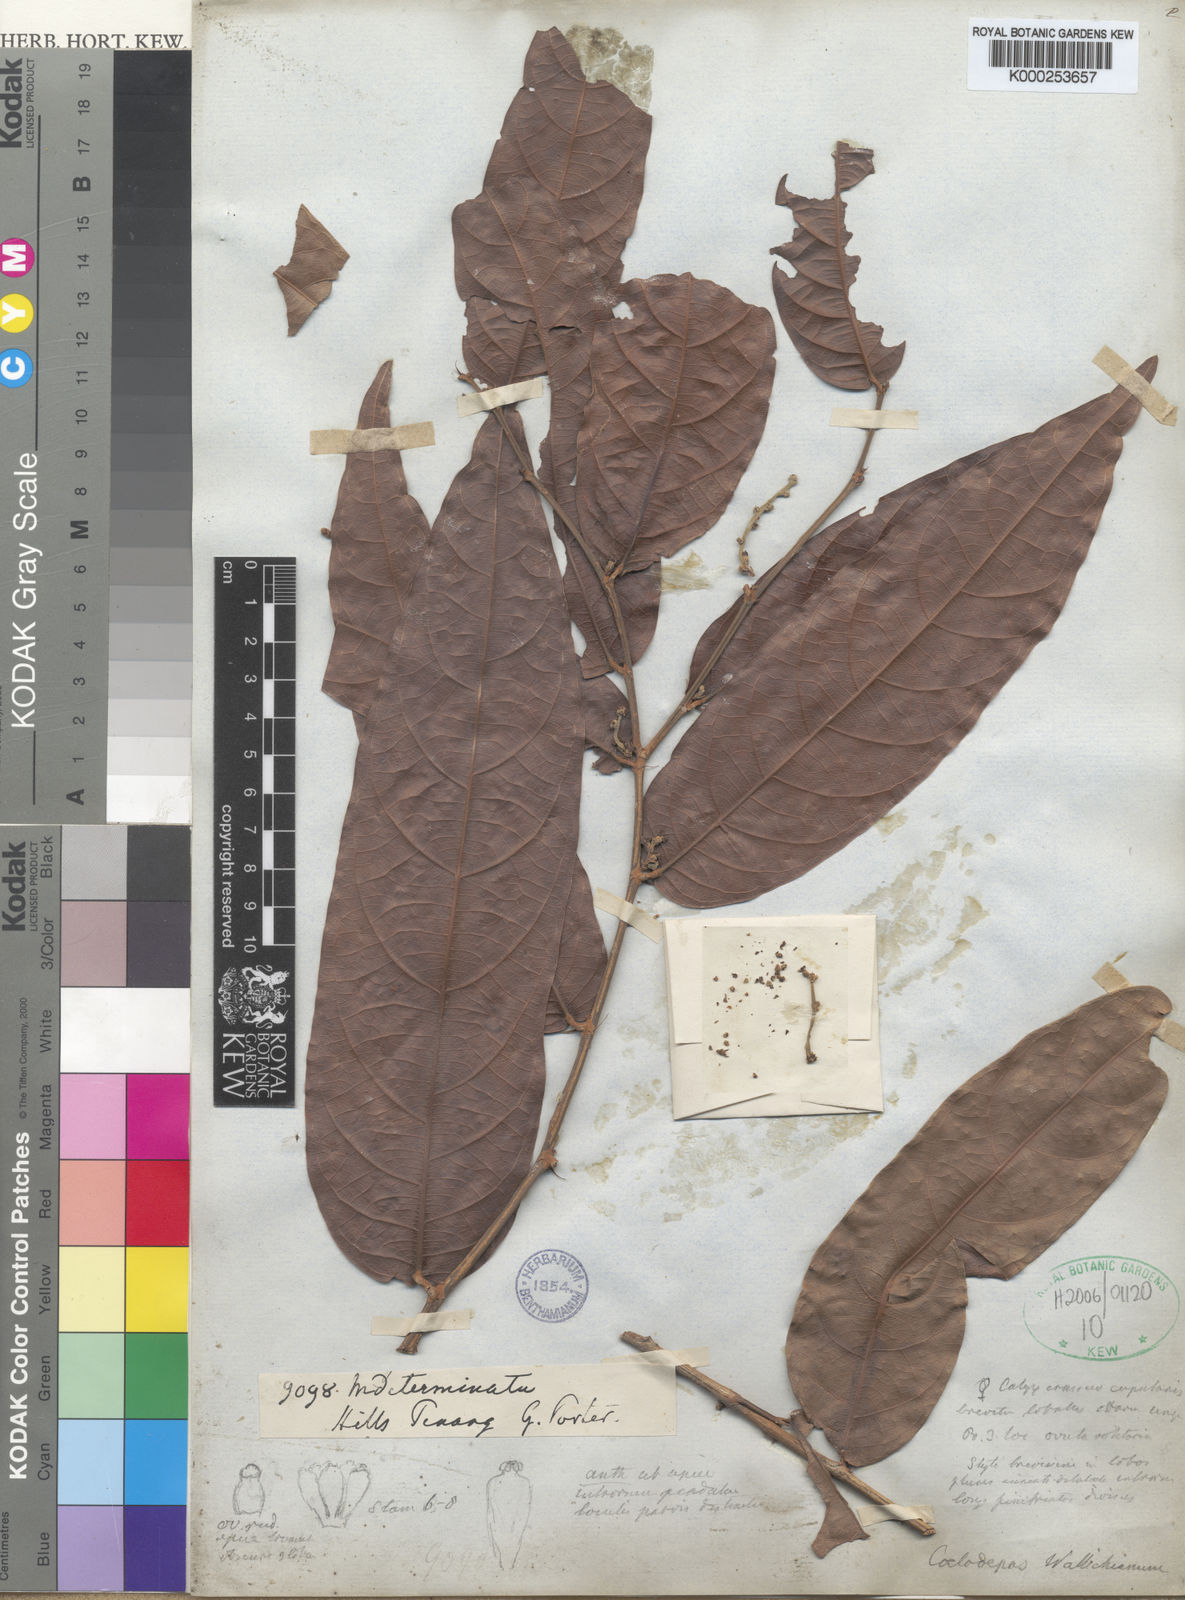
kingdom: Plantae
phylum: Tracheophyta
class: Magnoliopsida
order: Malpighiales
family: Euphorbiaceae
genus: Koilodepas
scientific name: Koilodepas bantamense
